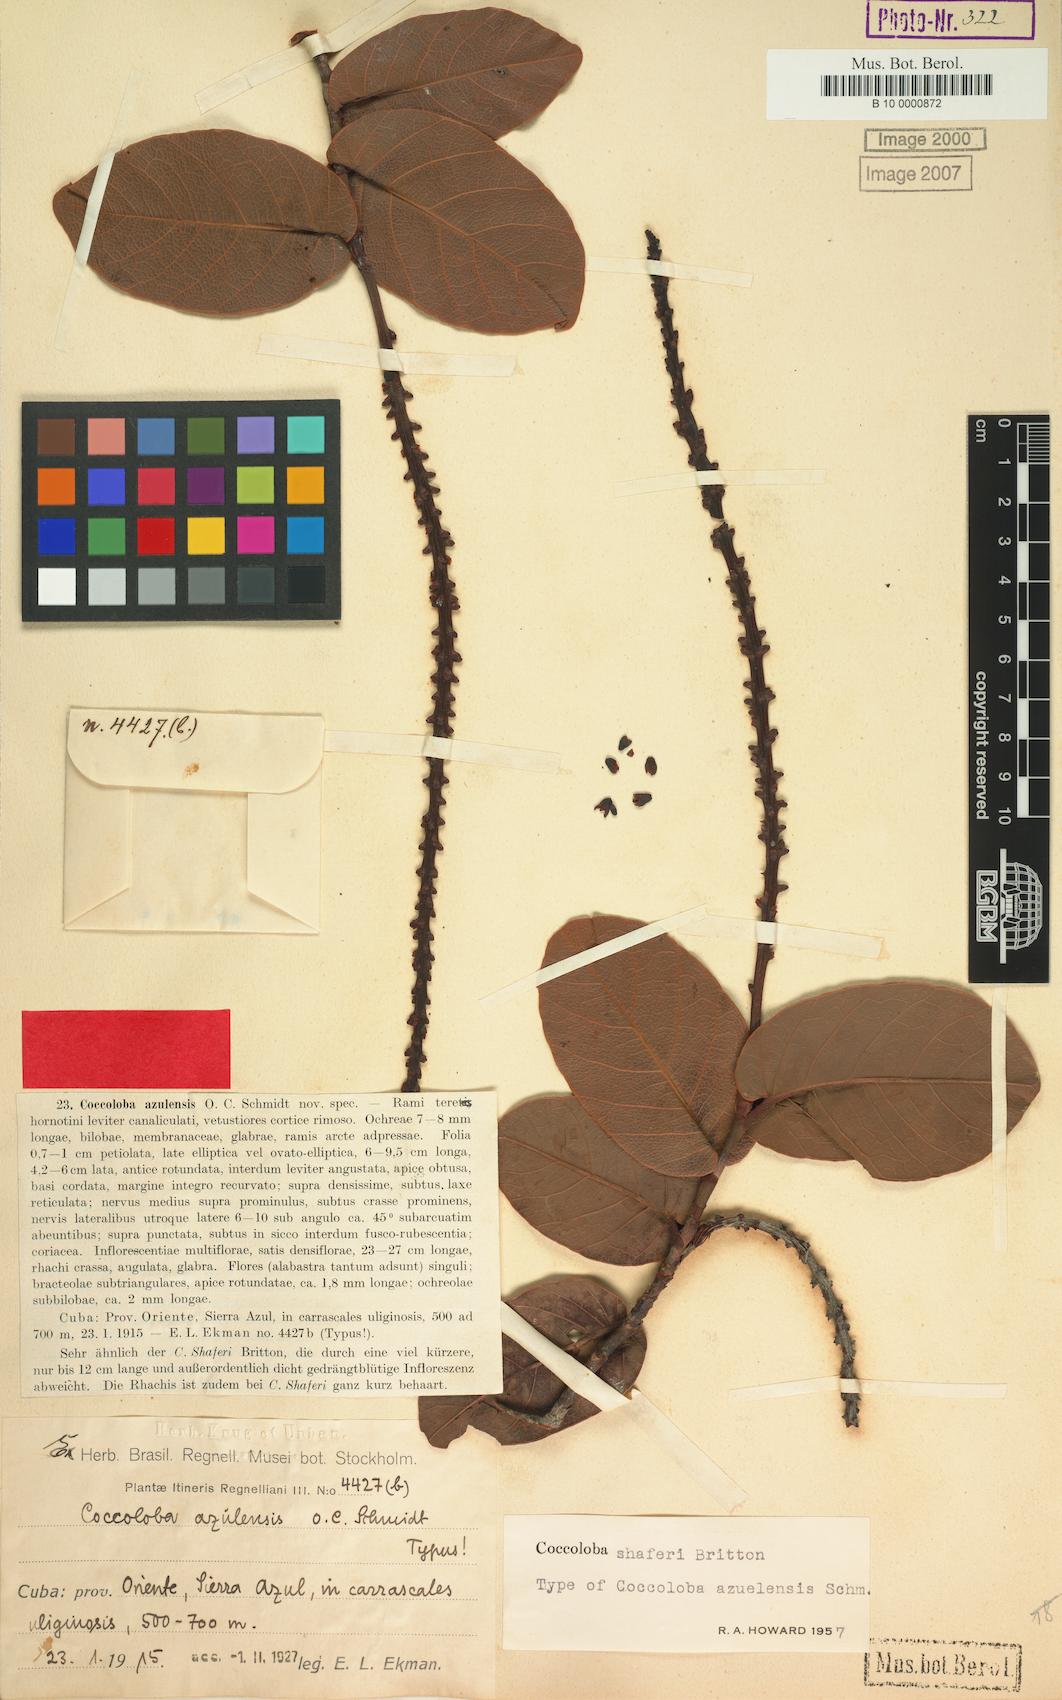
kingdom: Plantae
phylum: Tracheophyta
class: Magnoliopsida
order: Caryophyllales
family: Polygonaceae
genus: Coccoloba
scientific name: Coccoloba shaferi
